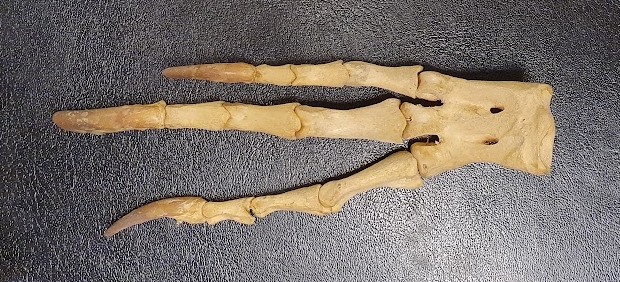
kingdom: Animalia
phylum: Chordata
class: Aves
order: Sphenisciformes
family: Spheniscidae
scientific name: Spheniscidae
